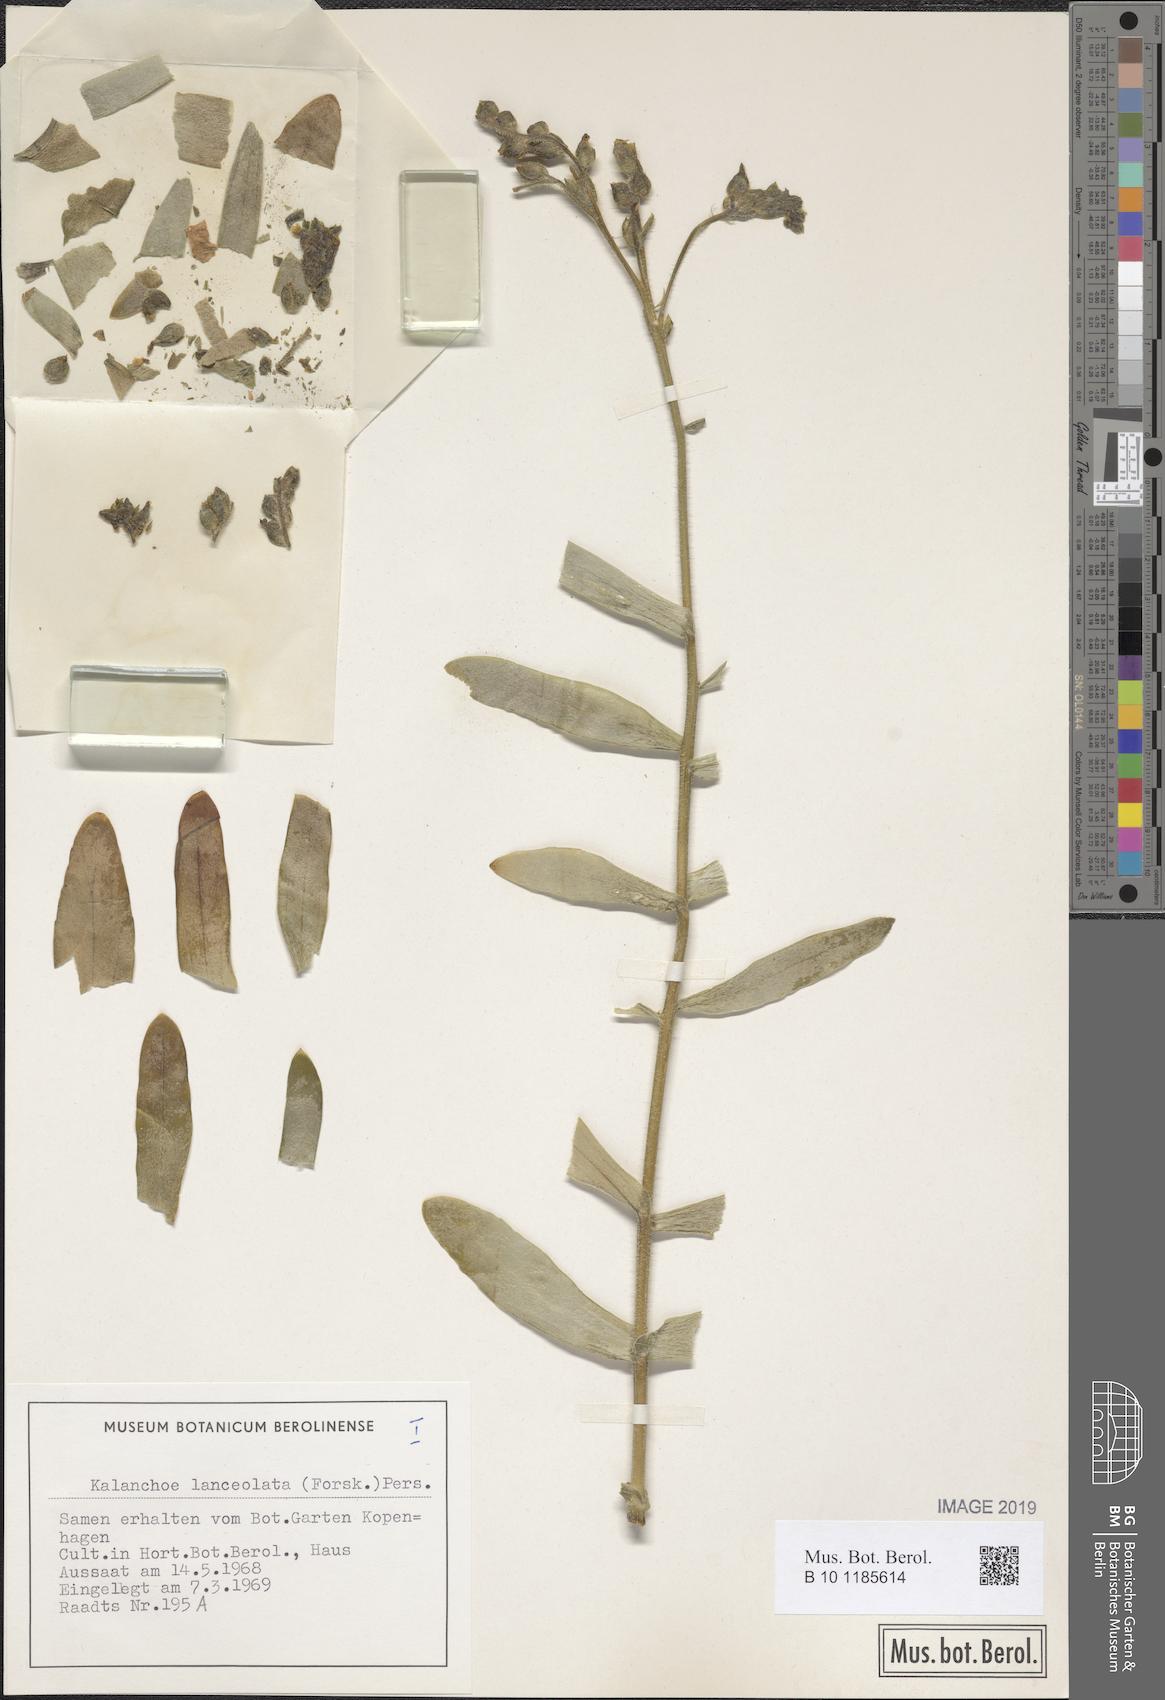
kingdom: Plantae
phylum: Tracheophyta
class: Magnoliopsida
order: Saxifragales
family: Crassulaceae
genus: Kalanchoe
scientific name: Kalanchoe lanceolata
